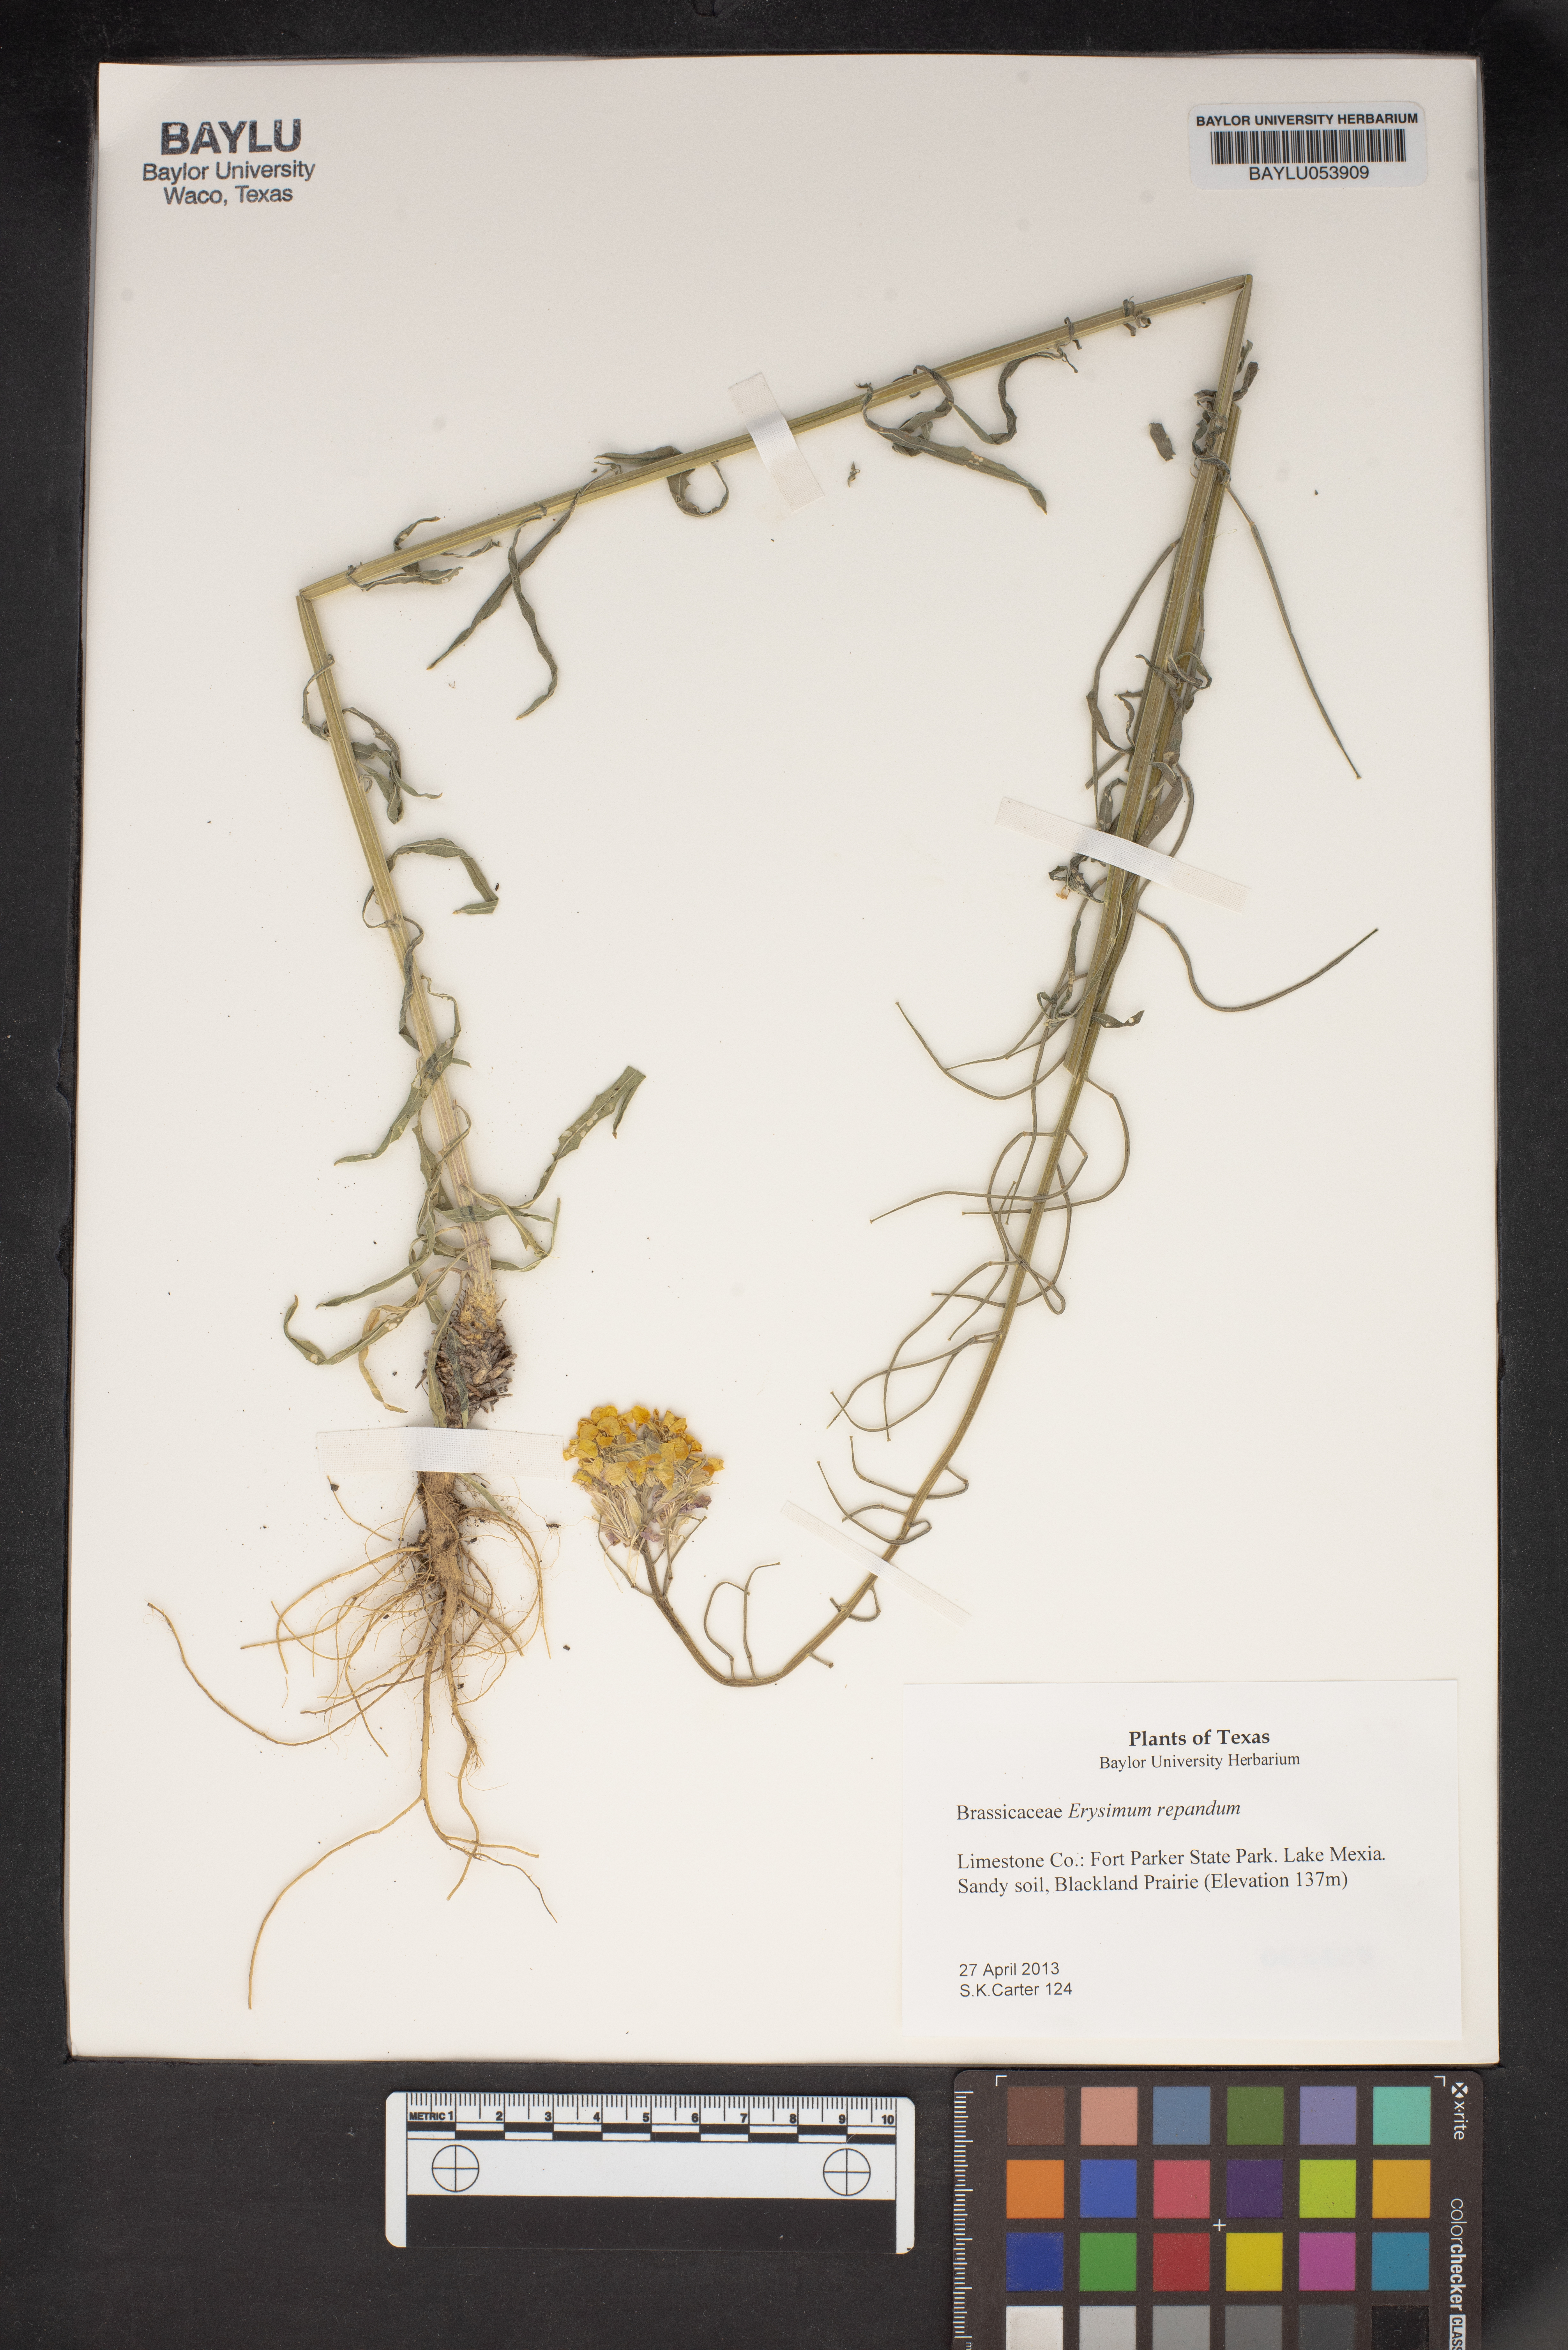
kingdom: Plantae
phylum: Tracheophyta
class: Magnoliopsida
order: Brassicales
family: Brassicaceae
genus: Erysimum
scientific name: Erysimum repandum
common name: Spreading wallflower
